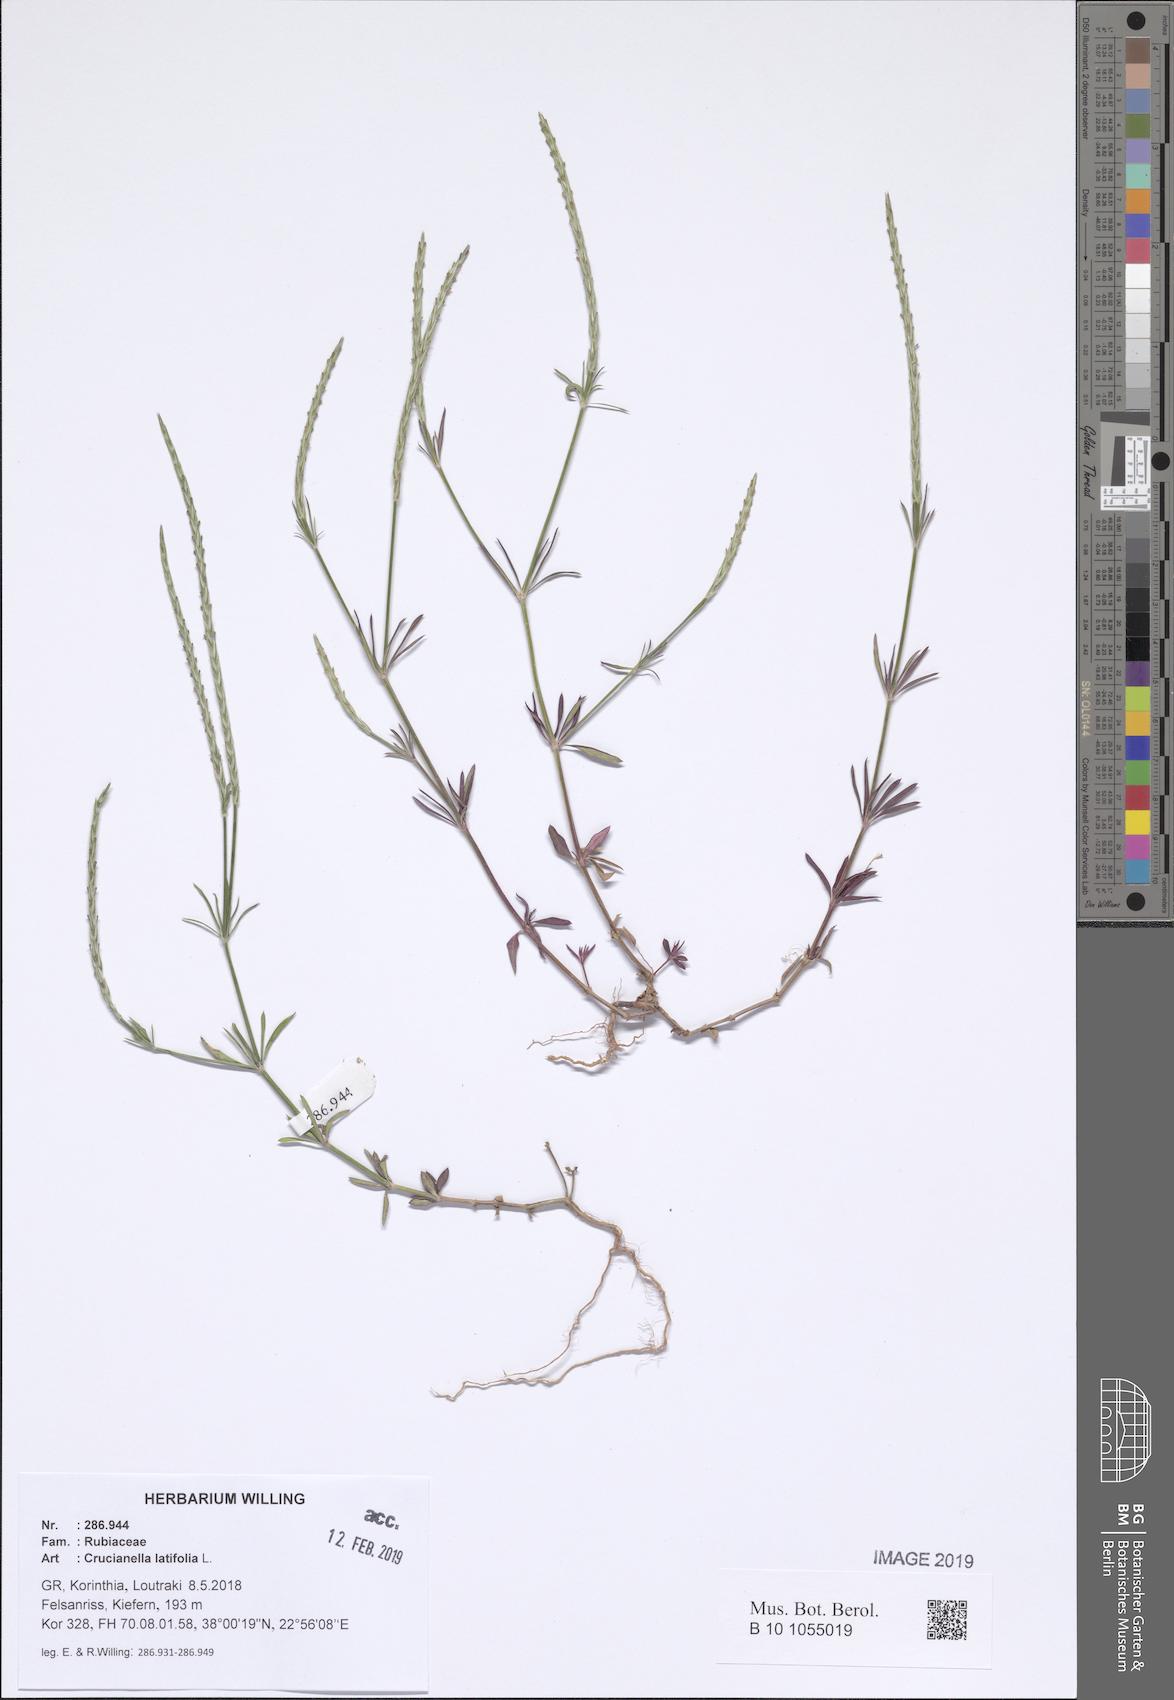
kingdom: Plantae
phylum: Tracheophyta
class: Magnoliopsida
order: Gentianales
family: Rubiaceae
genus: Crucianella
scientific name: Crucianella latifolia
